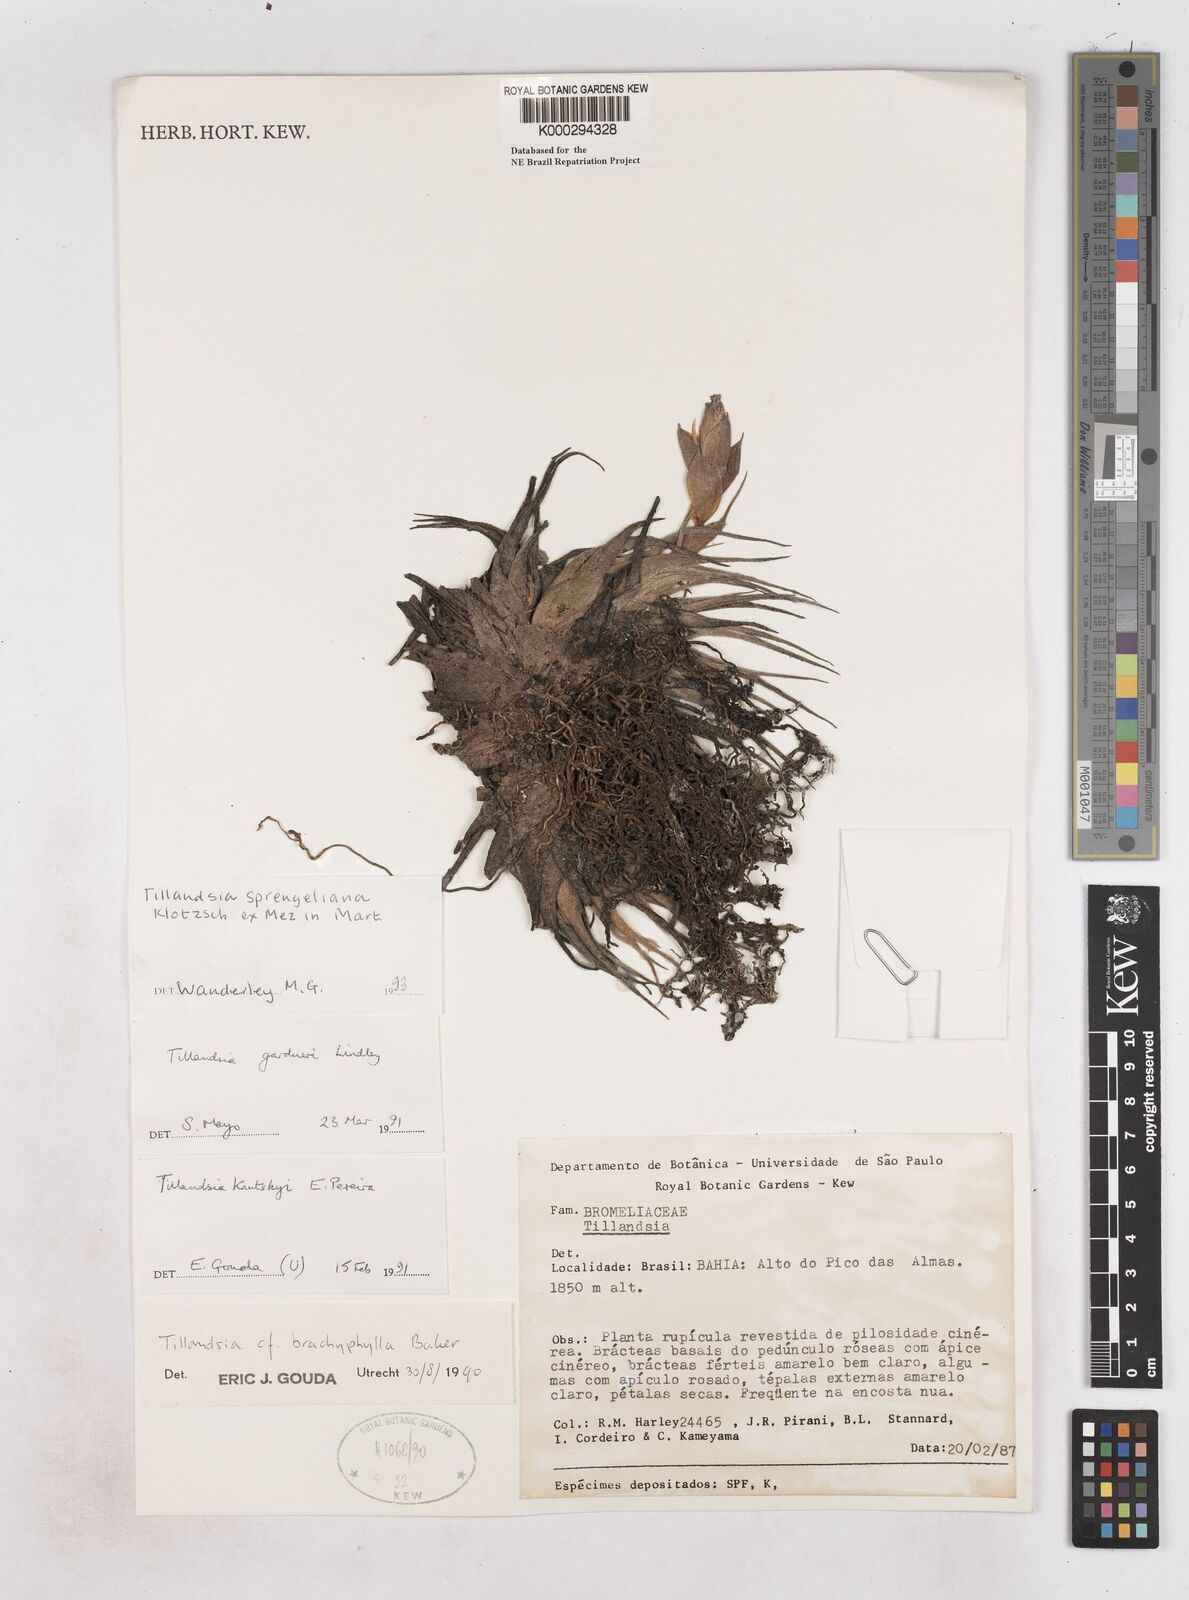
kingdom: Plantae
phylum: Tracheophyta
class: Liliopsida
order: Poales
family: Bromeliaceae
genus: Tillandsia
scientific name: Tillandsia sprengeliana
